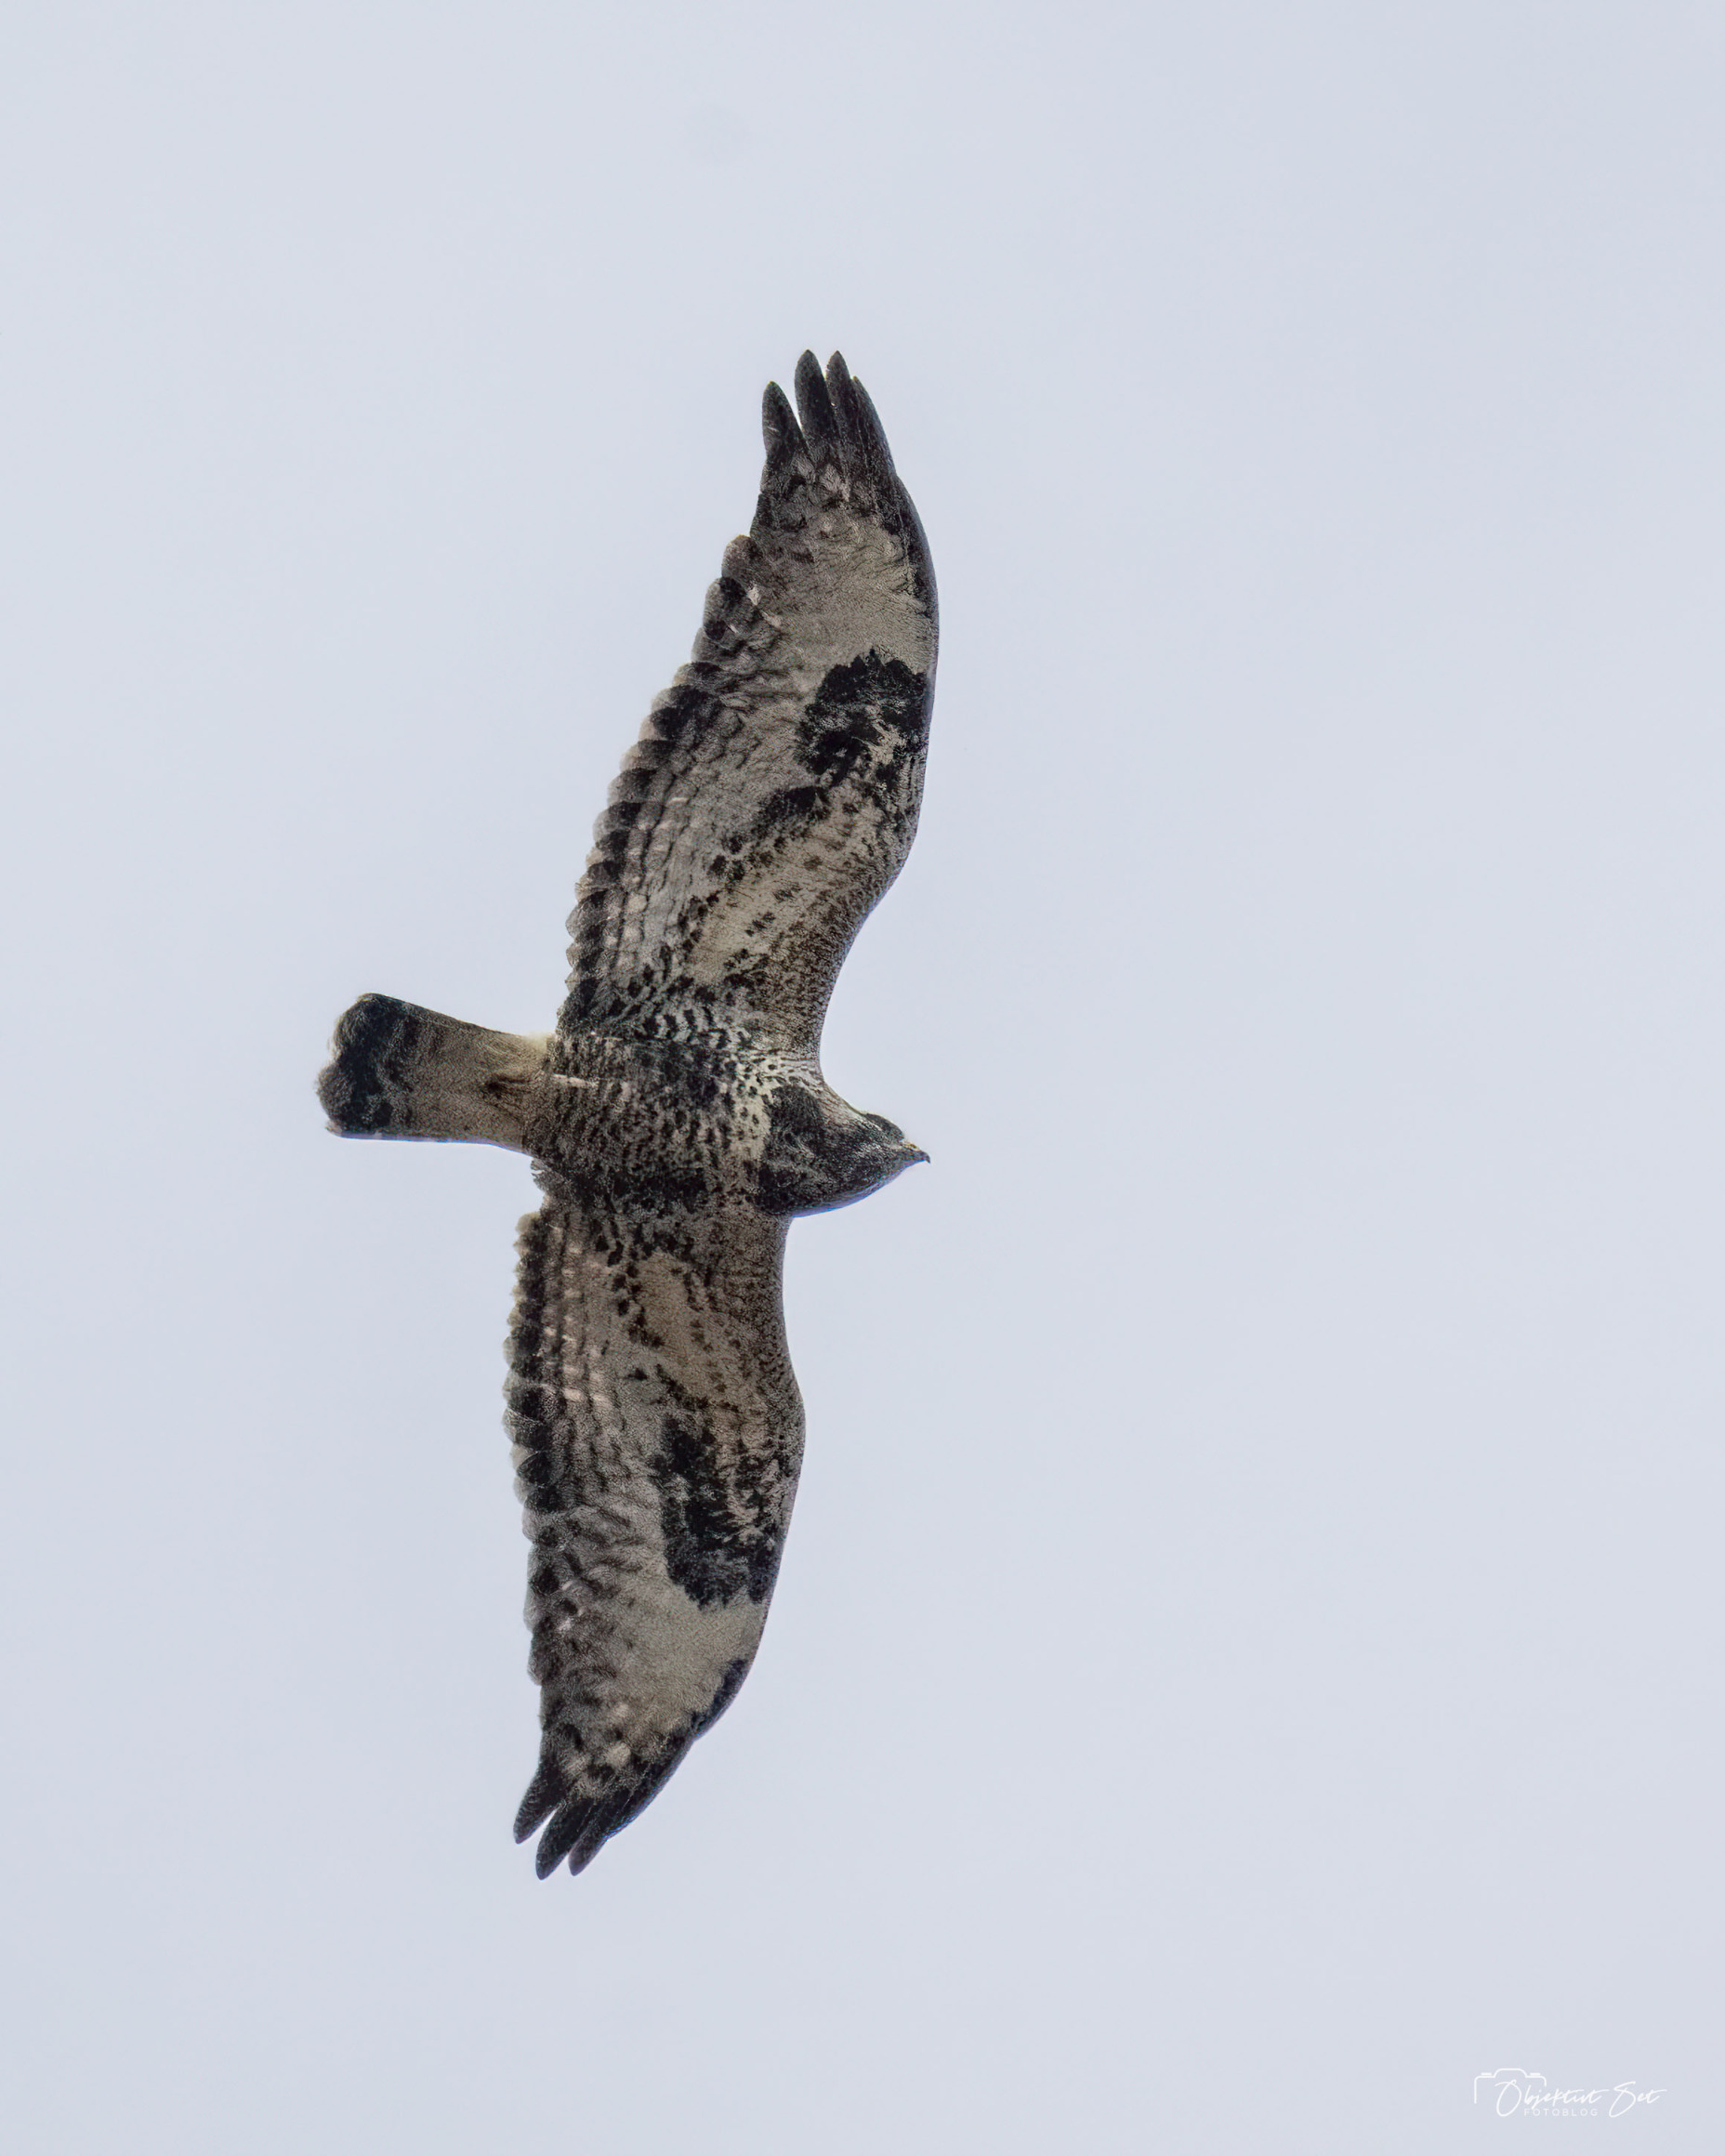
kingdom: Animalia
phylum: Chordata
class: Aves
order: Accipitriformes
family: Accipitridae
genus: Buteo
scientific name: Buteo lagopus
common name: Fjeldvåge
